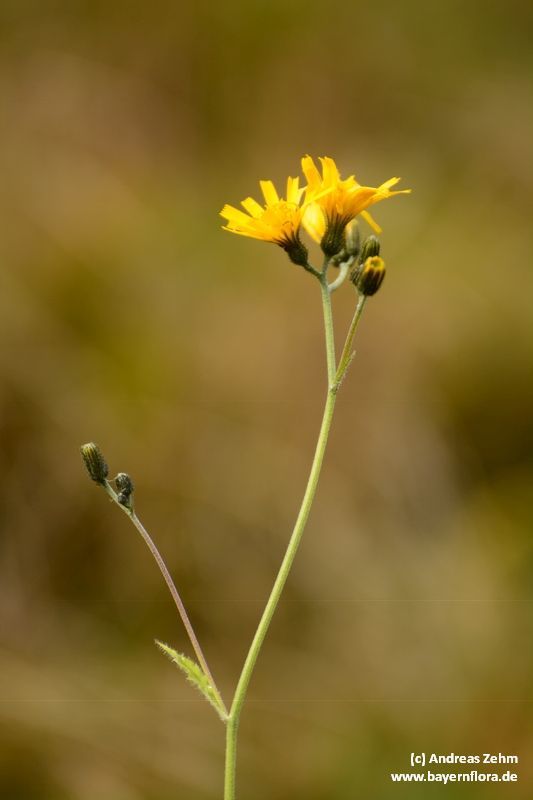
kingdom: Plantae
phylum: Tracheophyta
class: Magnoliopsida
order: Asterales
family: Asteraceae
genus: Hieracium
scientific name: Hieracium murorum
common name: Wall hawkweed
